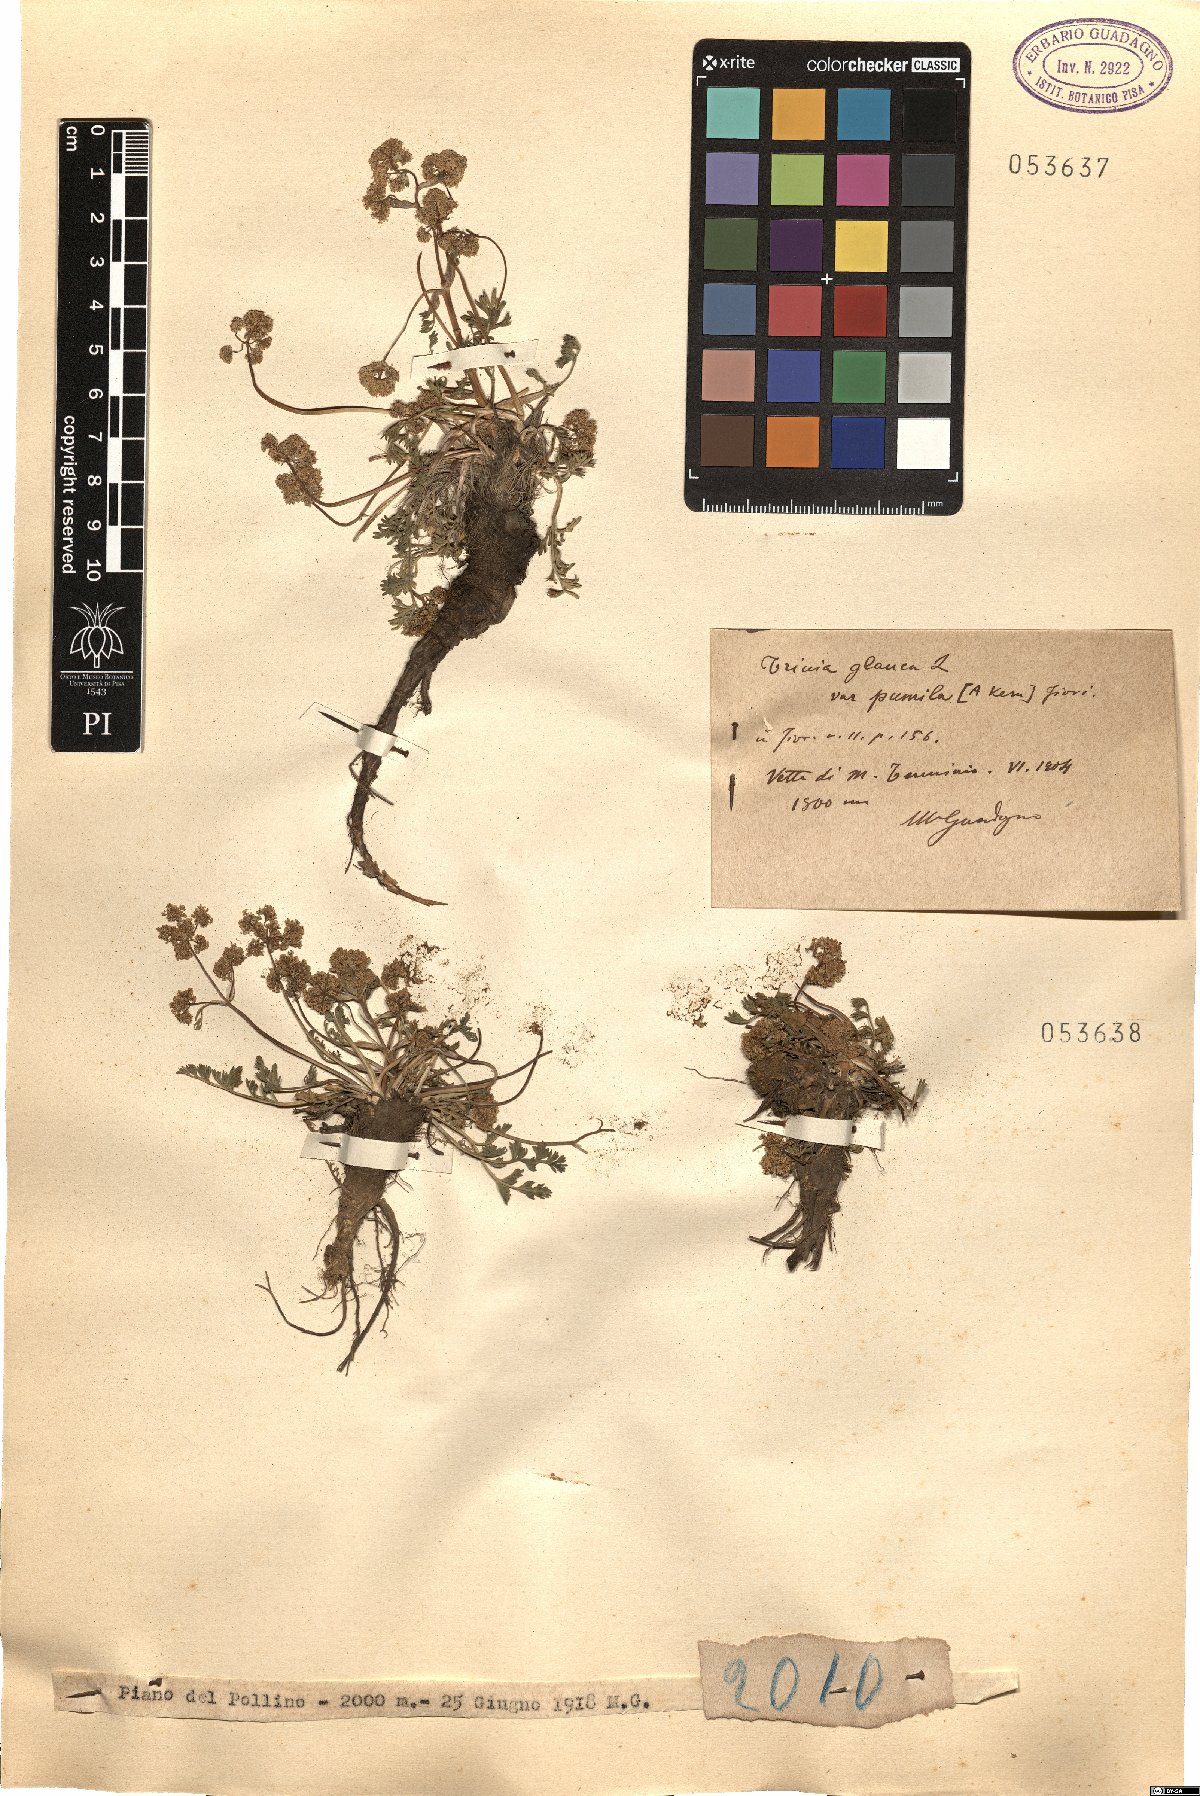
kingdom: Plantae
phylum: Tracheophyta
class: Magnoliopsida
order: Apiales
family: Apiaceae
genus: Trinia
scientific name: Trinia
